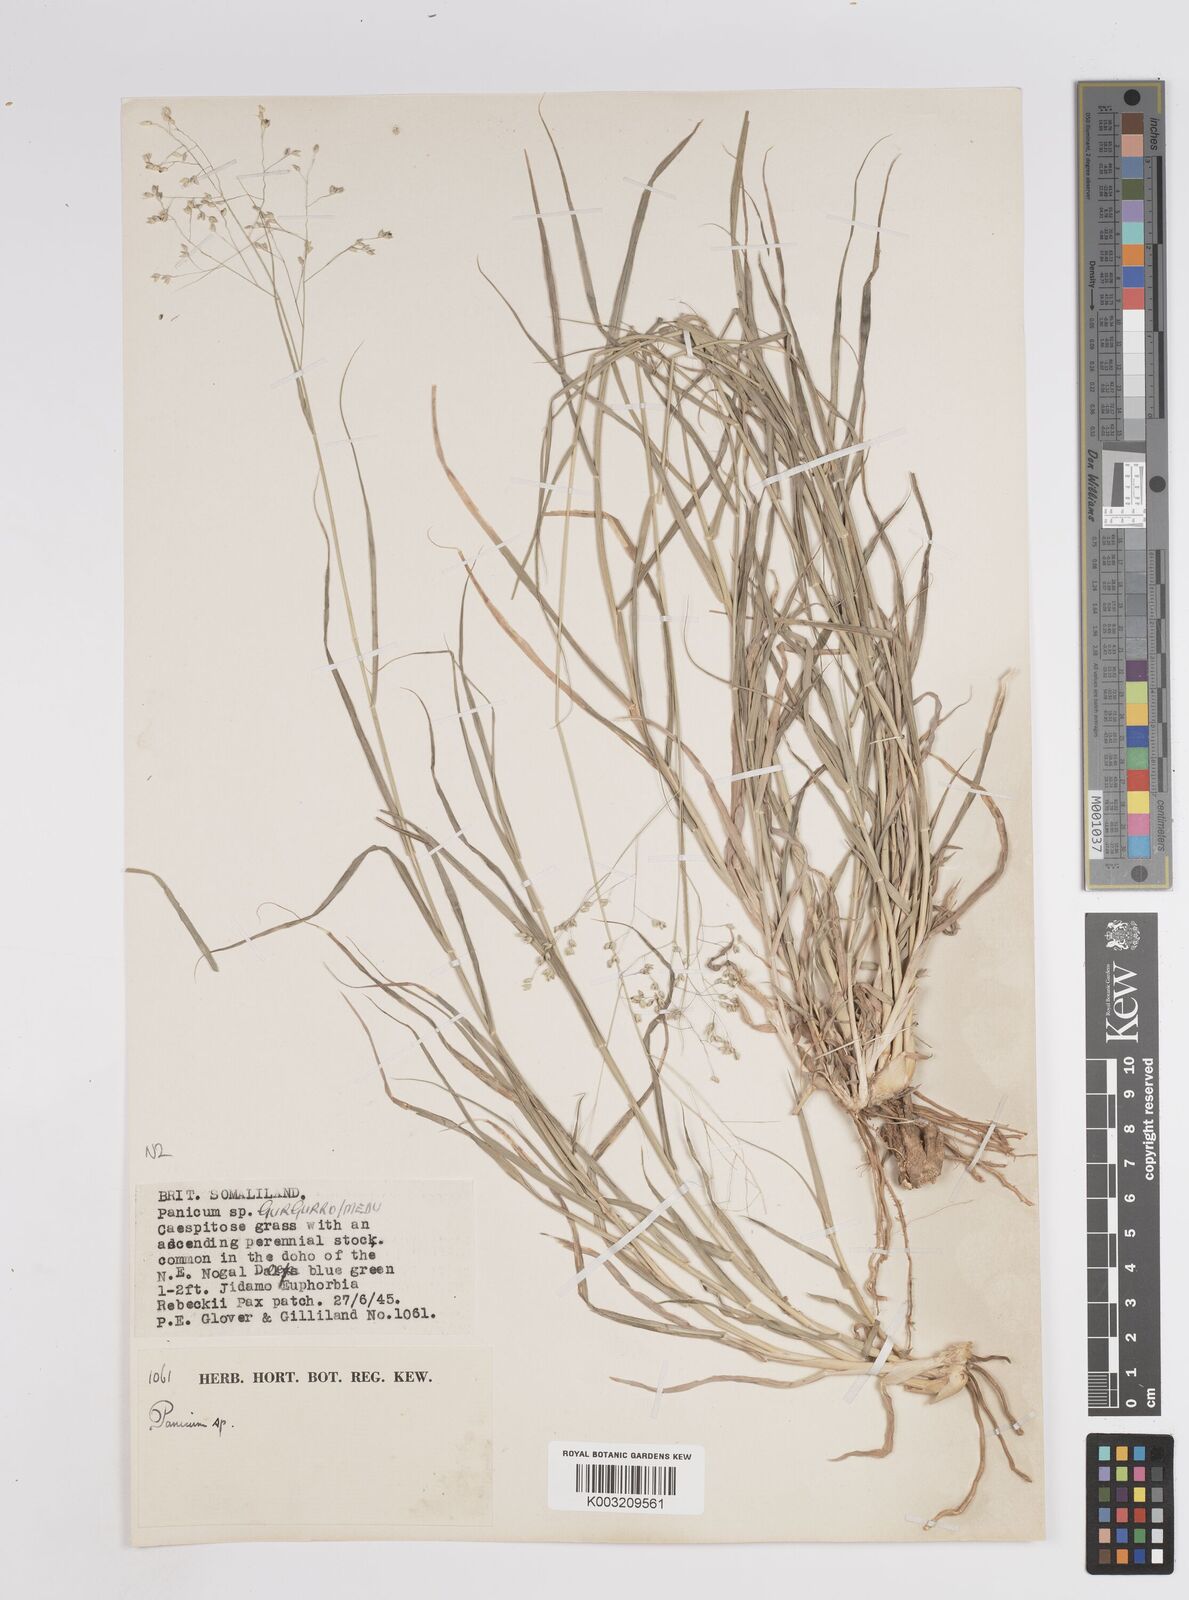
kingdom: Plantae
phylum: Tracheophyta
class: Liliopsida
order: Poales
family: Poaceae
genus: Panicum
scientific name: Panicum coloratum
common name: Kleingrass
